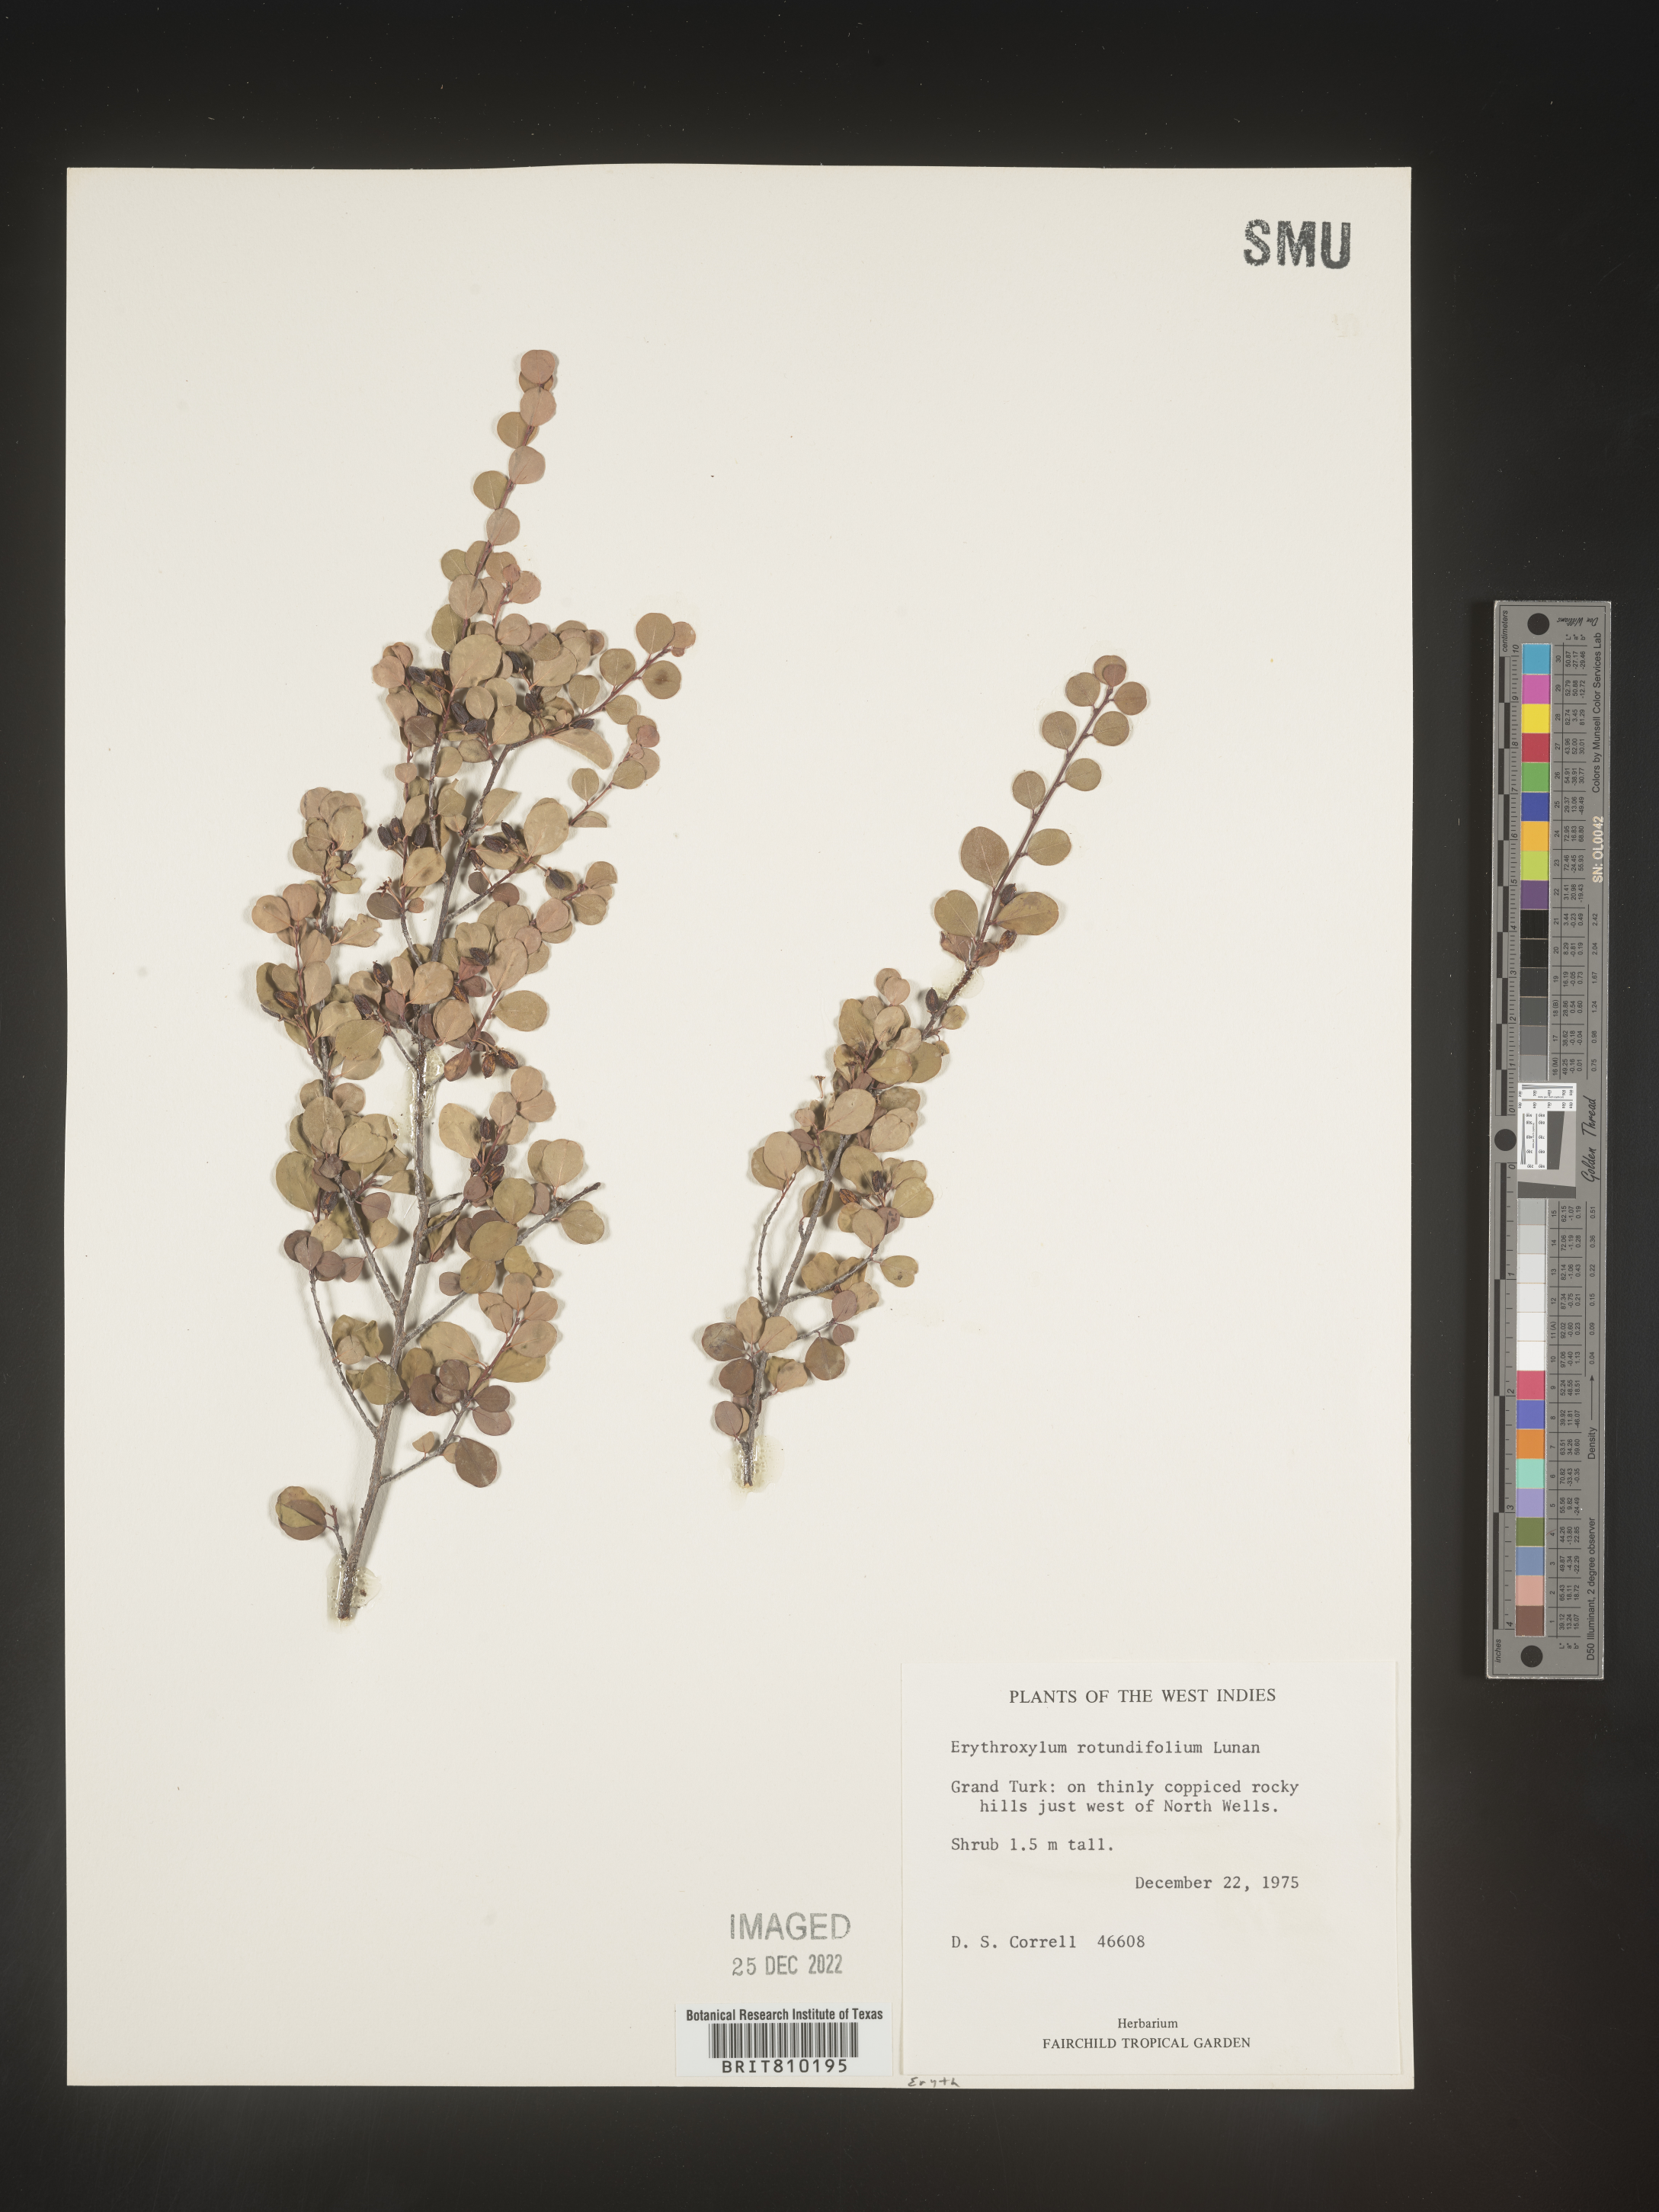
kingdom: Plantae
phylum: Tracheophyta
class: Magnoliopsida
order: Malpighiales
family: Erythroxylaceae
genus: Erythroxylum
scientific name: Erythroxylum
